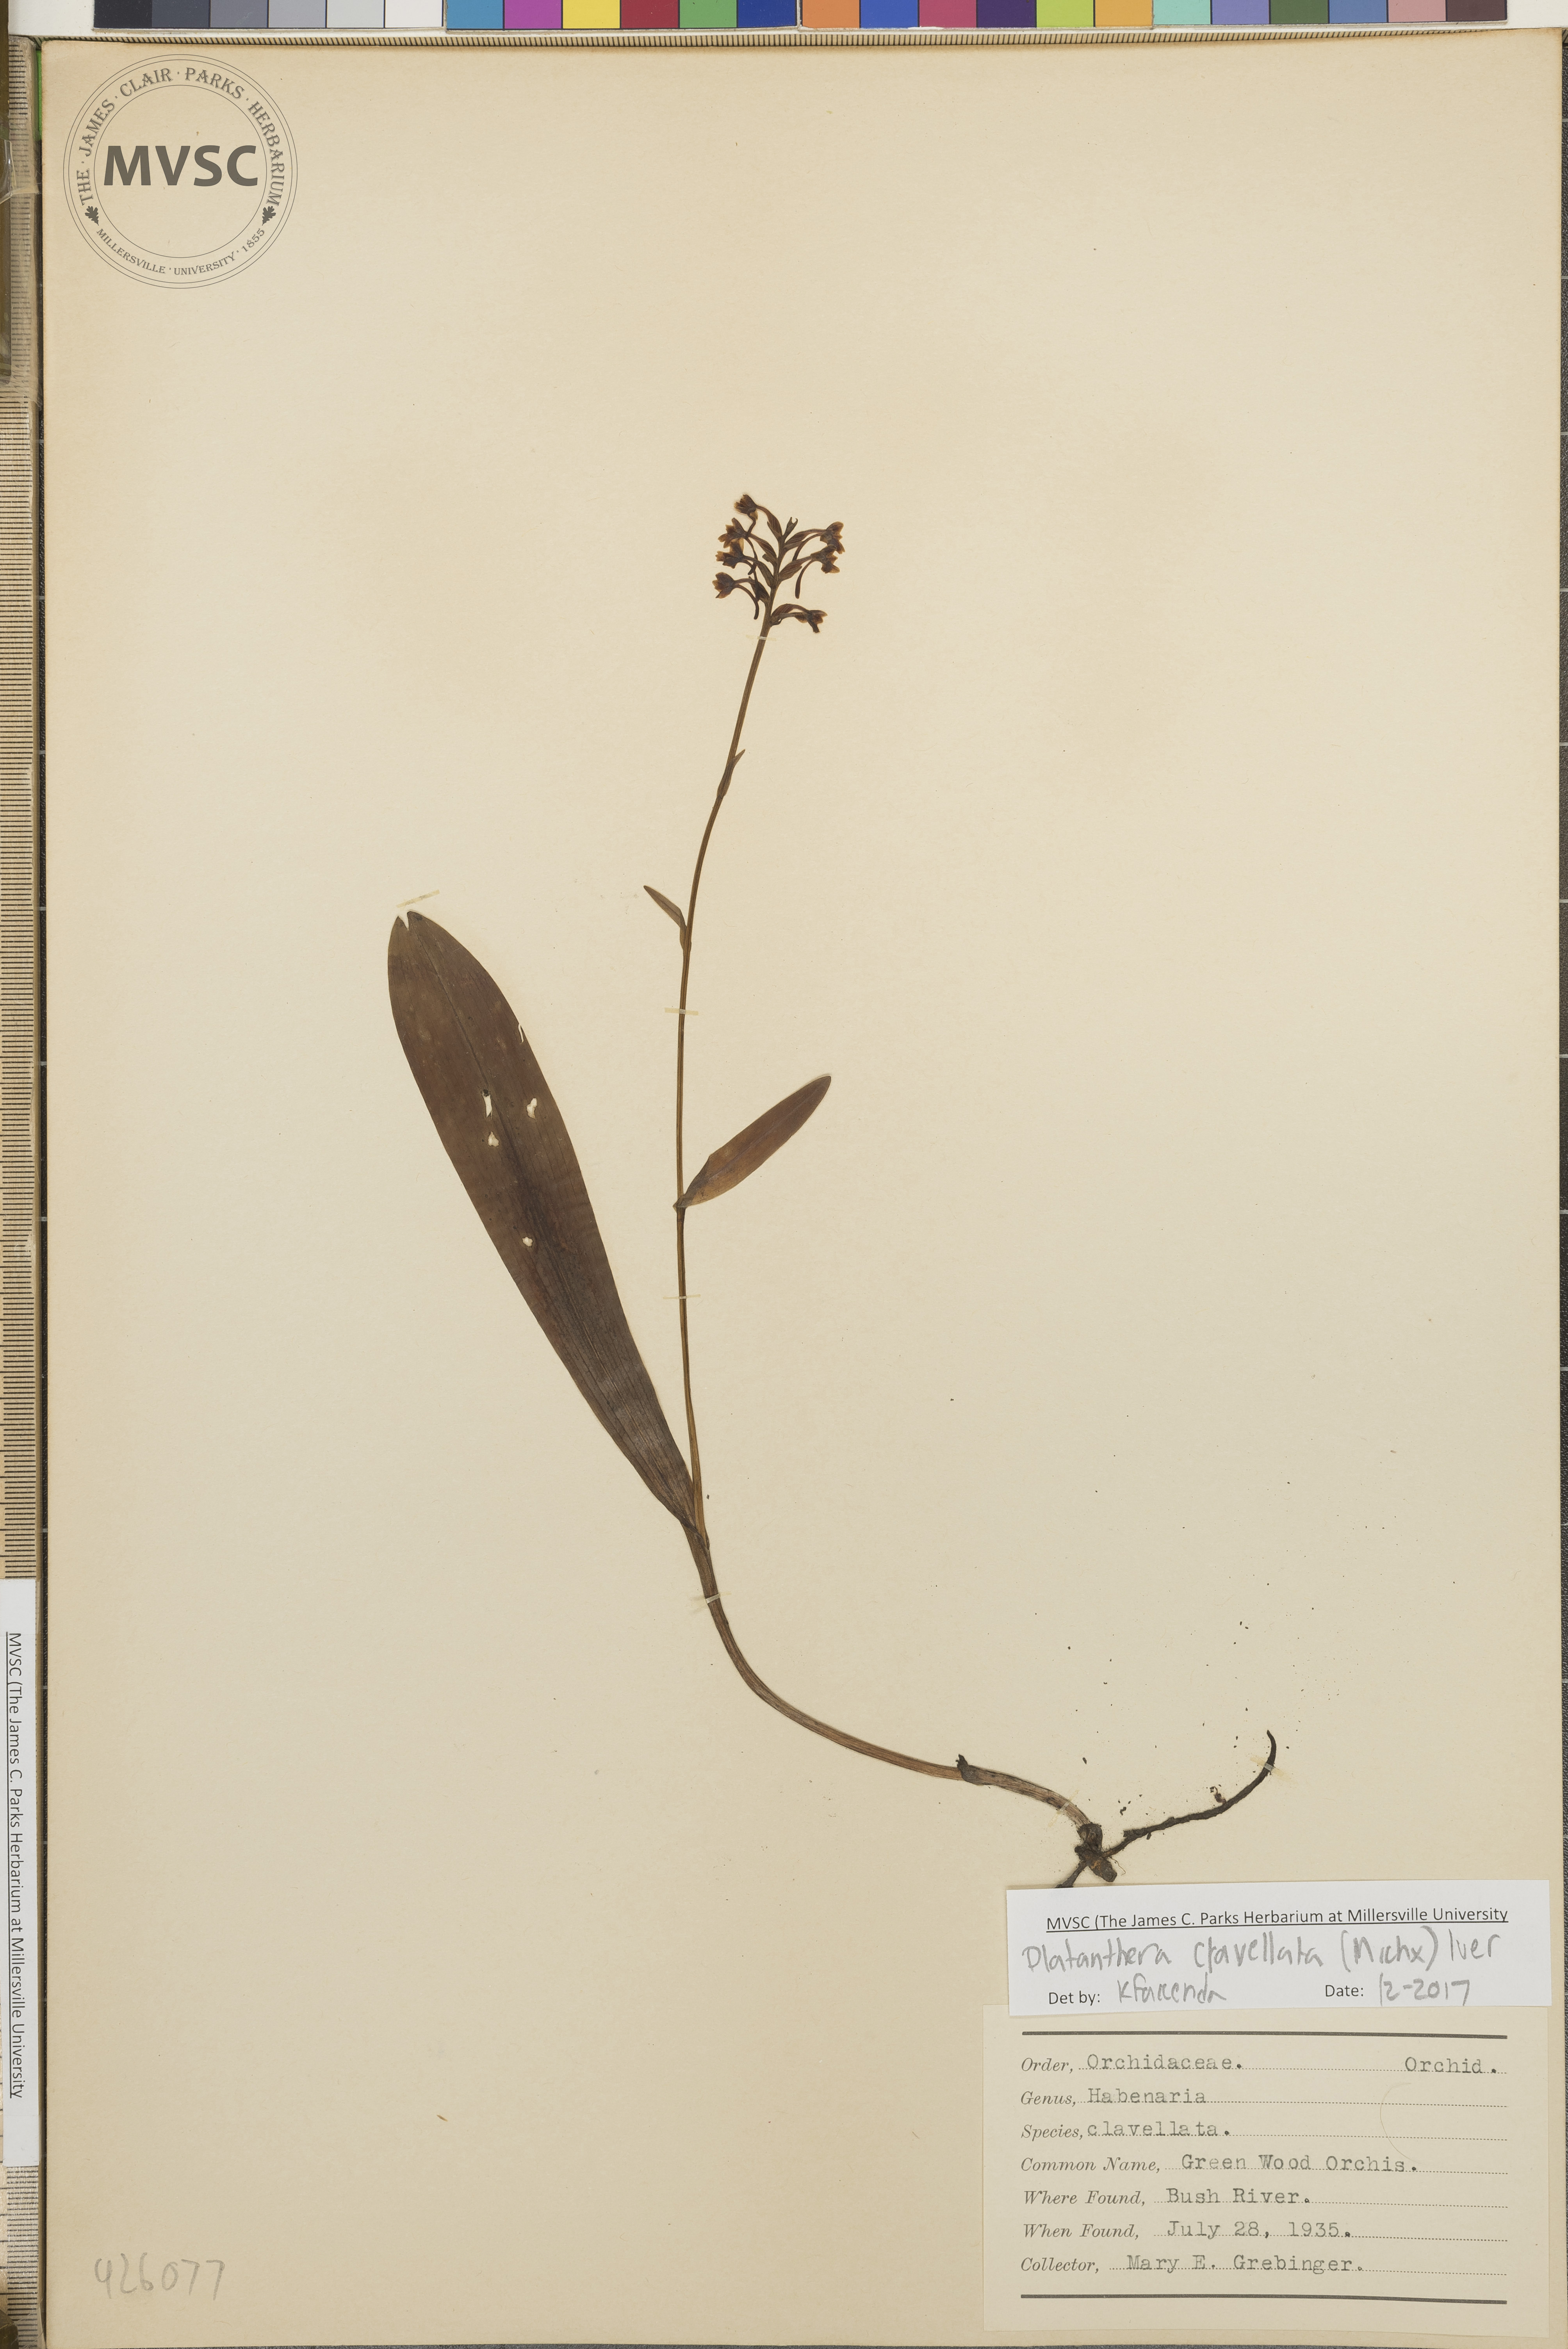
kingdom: Plantae
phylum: Tracheophyta
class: Liliopsida
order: Asparagales
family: Orchidaceae
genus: Platanthera
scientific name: Platanthera clavellata
